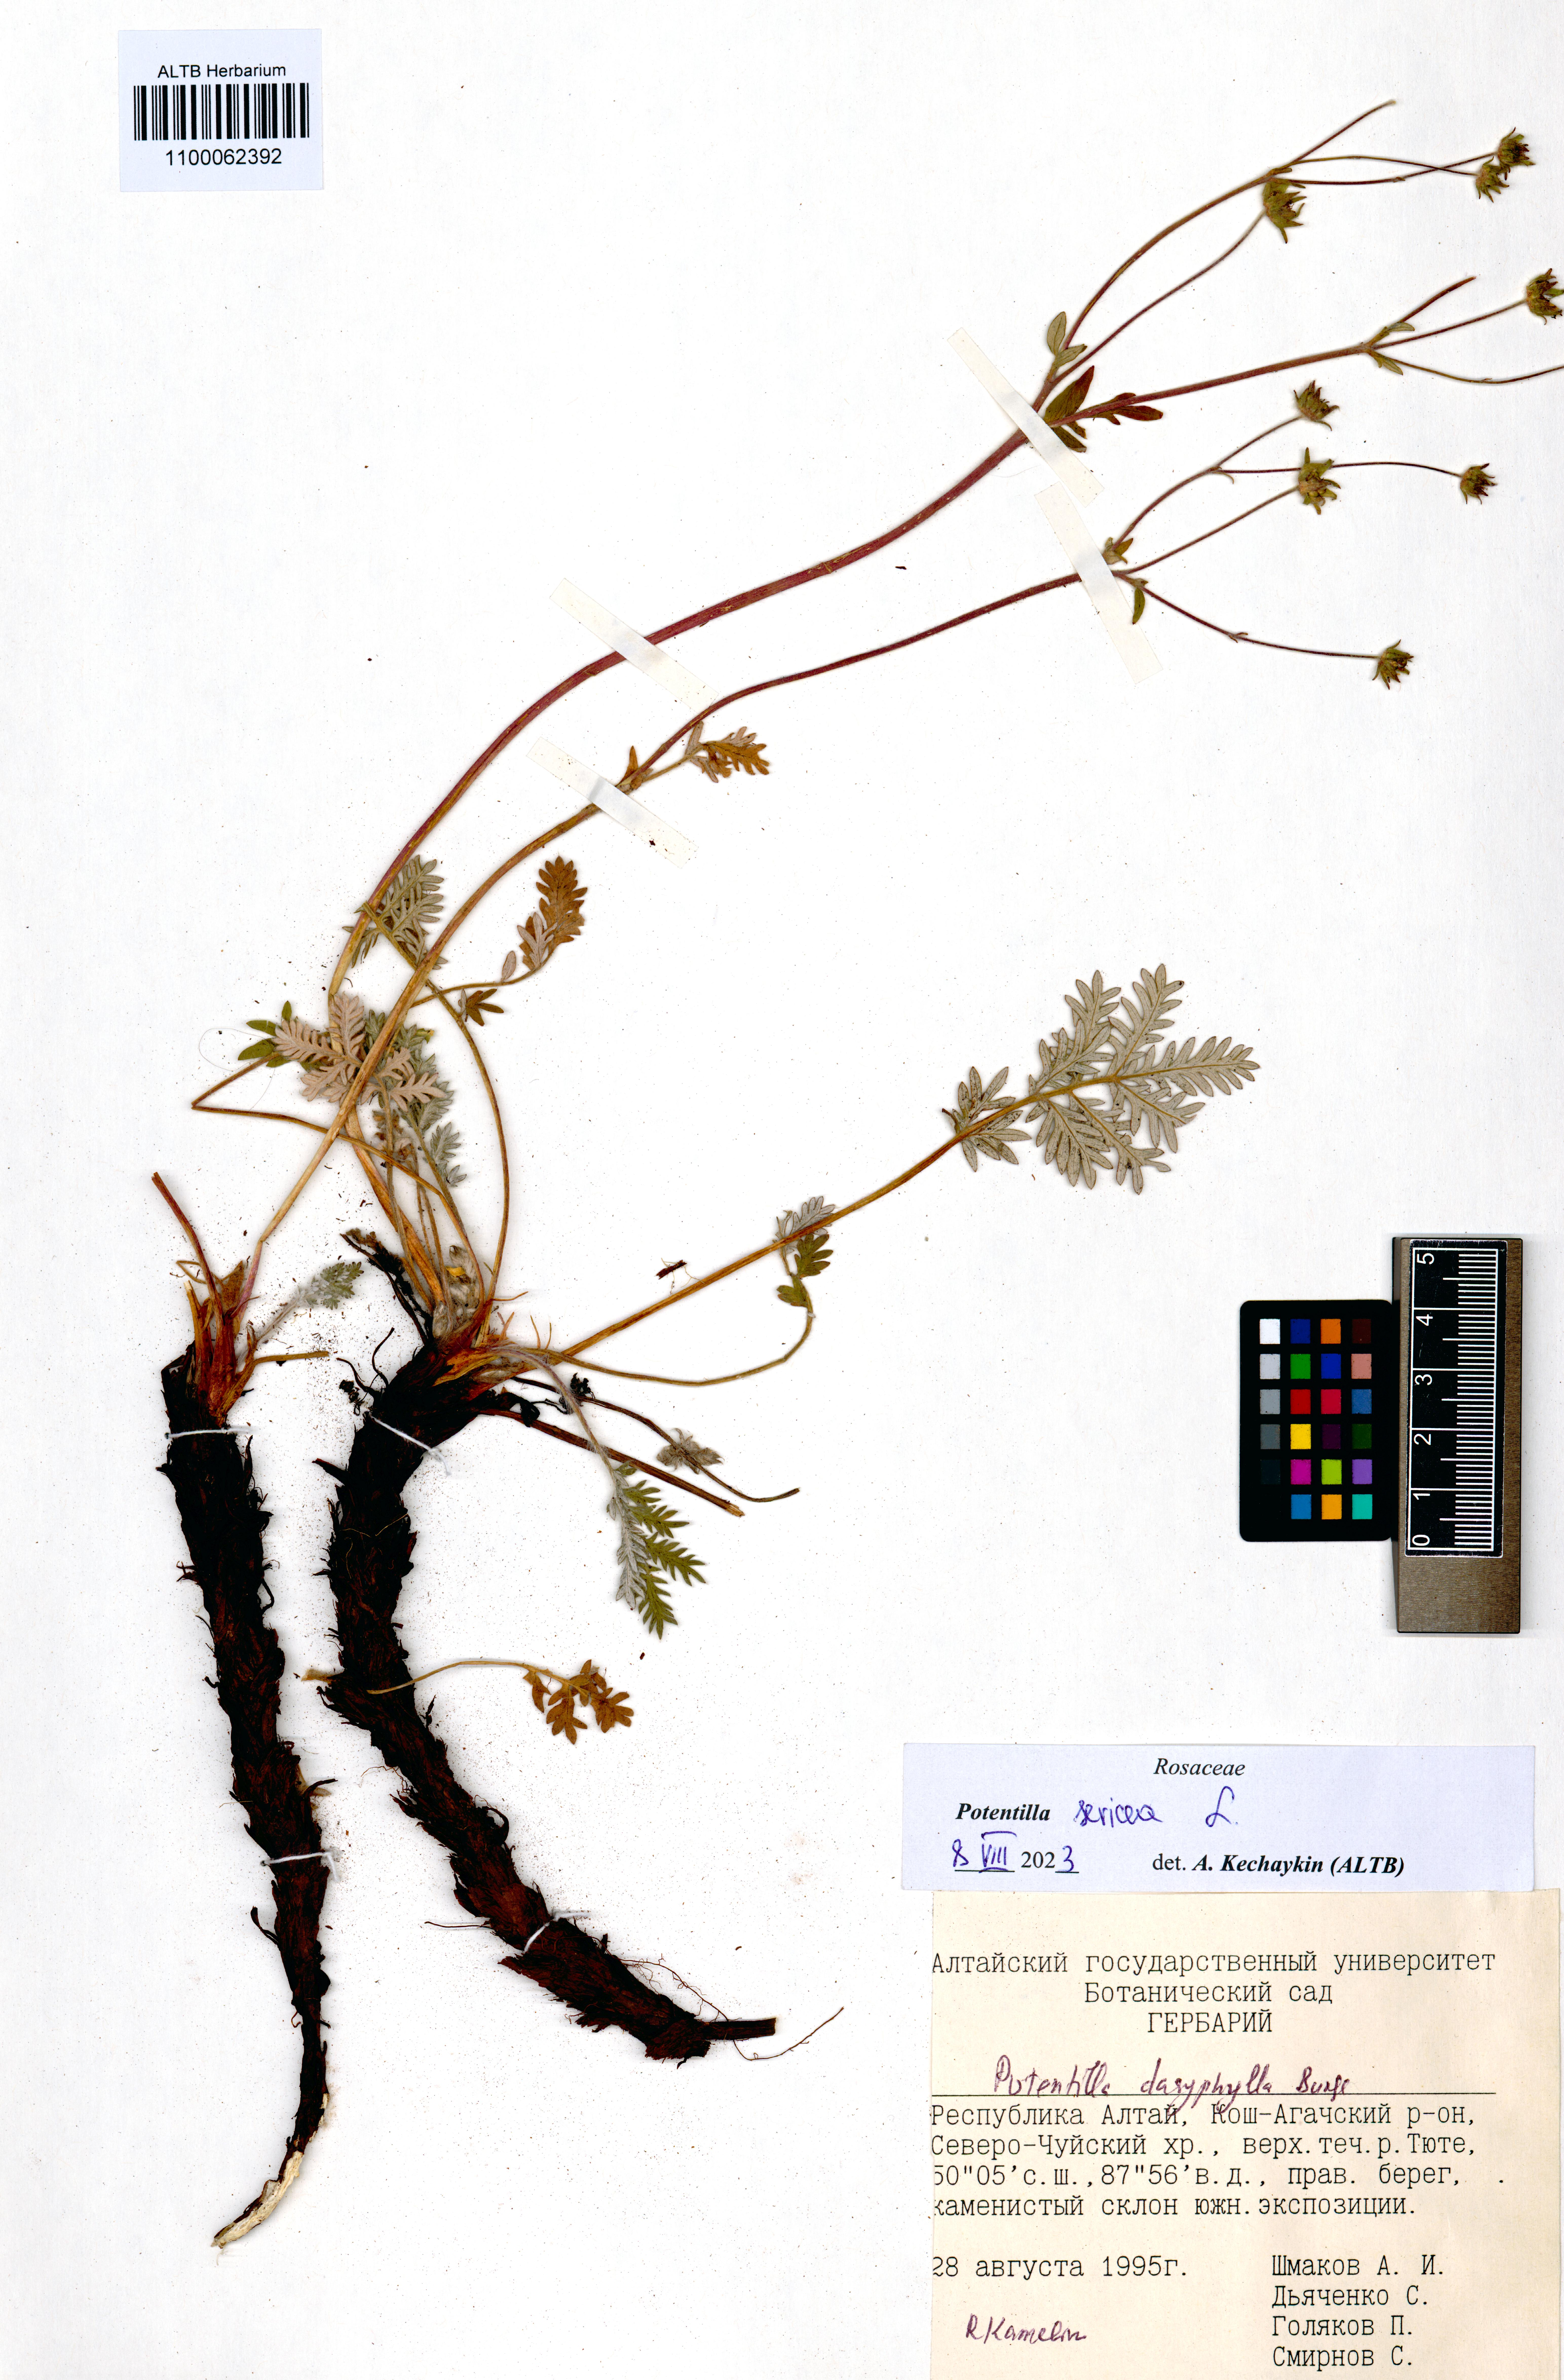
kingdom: Plantae
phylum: Tracheophyta
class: Magnoliopsida
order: Rosales
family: Rosaceae
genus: Potentilla
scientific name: Potentilla sericea
